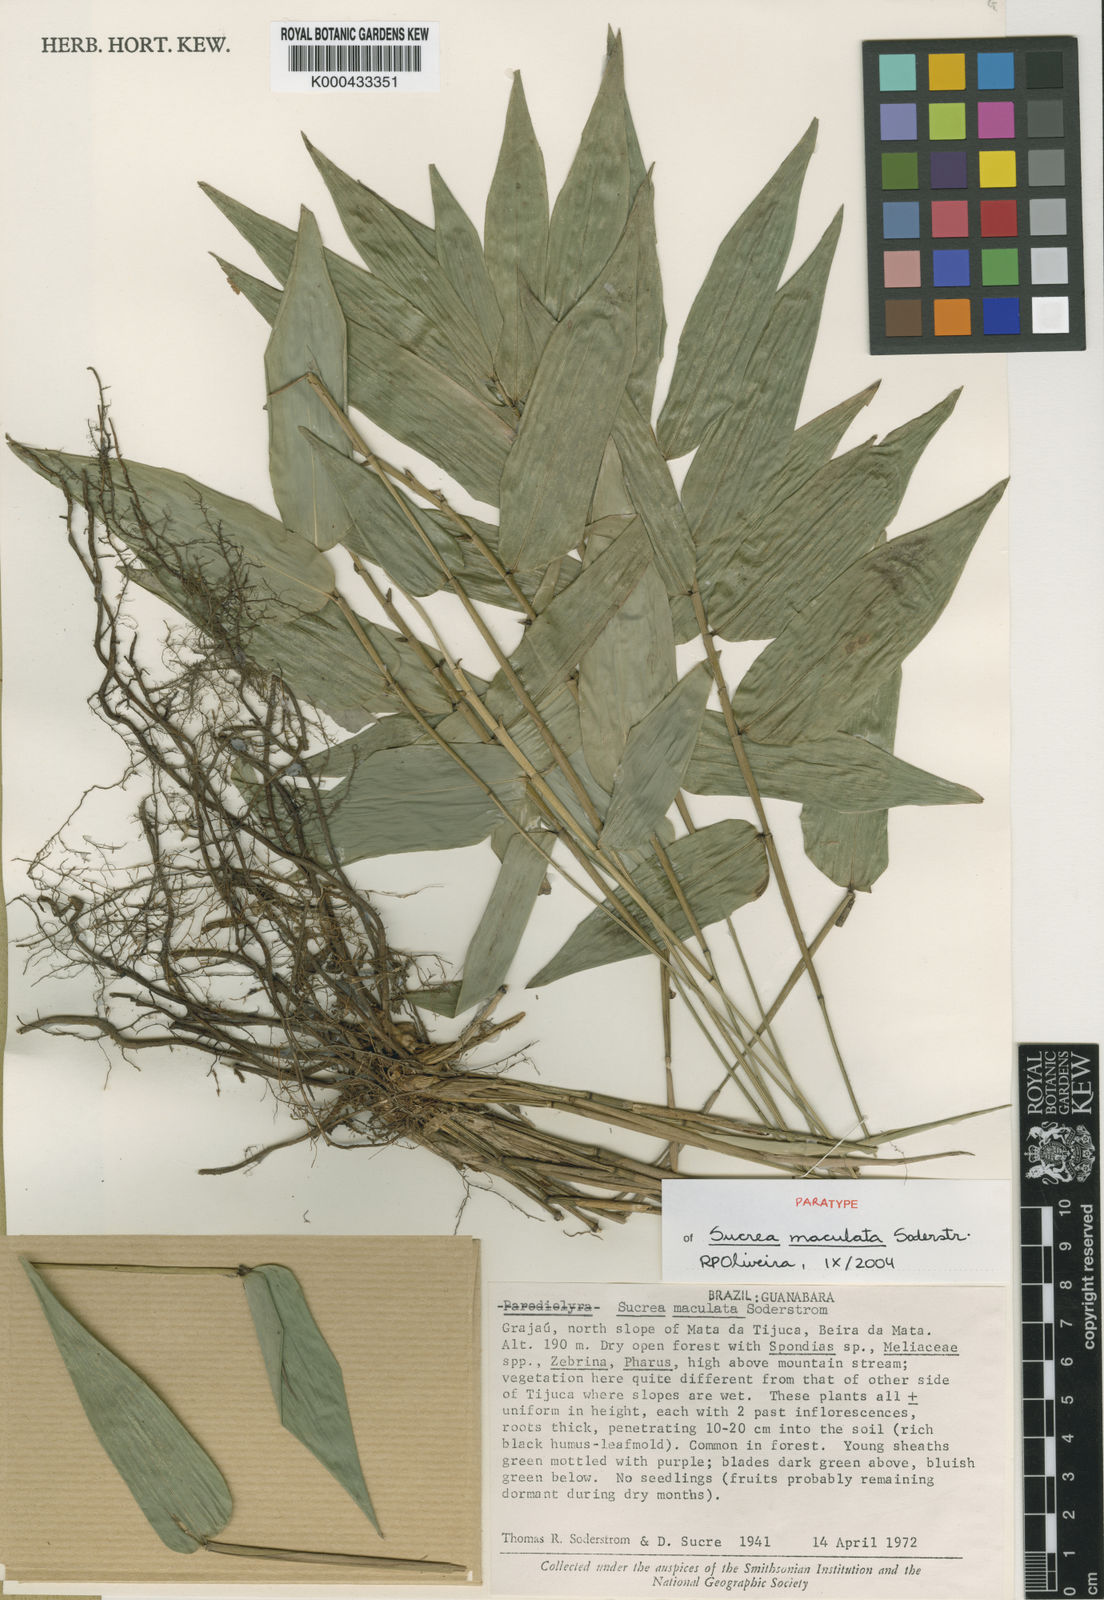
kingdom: Plantae
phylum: Tracheophyta
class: Liliopsida
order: Poales
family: Poaceae
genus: Raddia
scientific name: Raddia maculata
